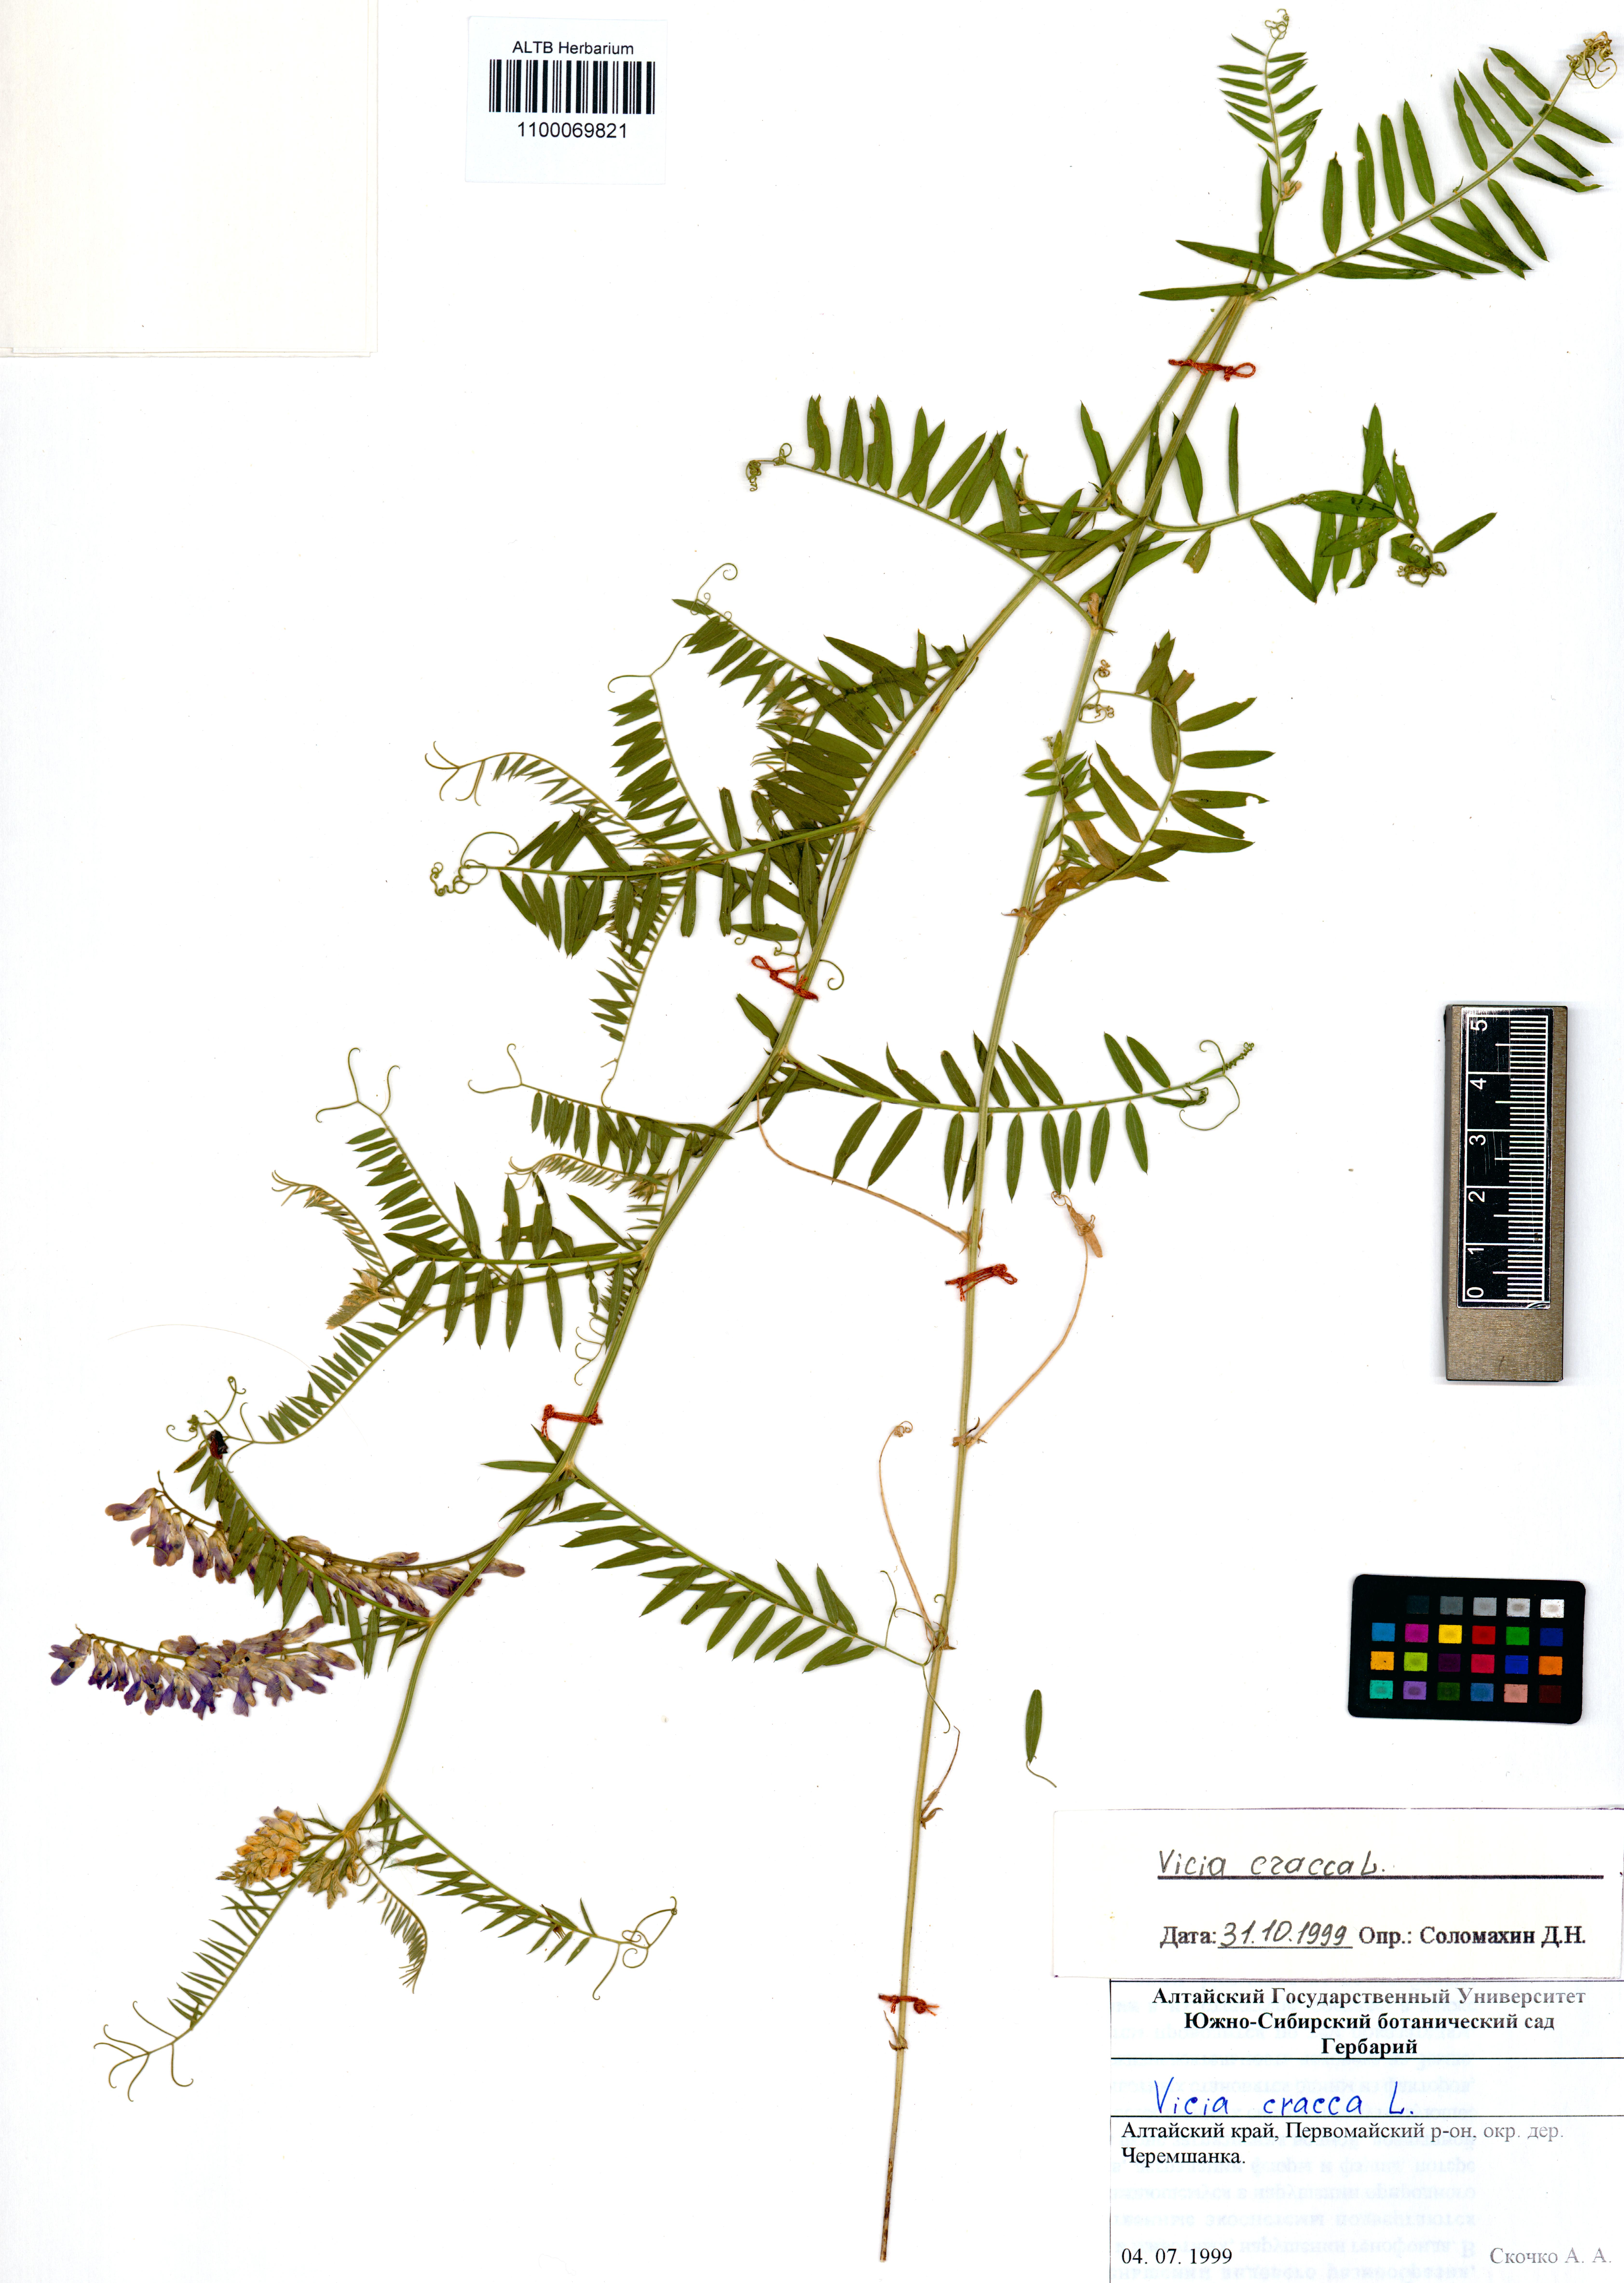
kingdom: Plantae
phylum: Tracheophyta
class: Magnoliopsida
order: Fabales
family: Fabaceae
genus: Vicia
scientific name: Vicia cracca
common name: Bird vetch
